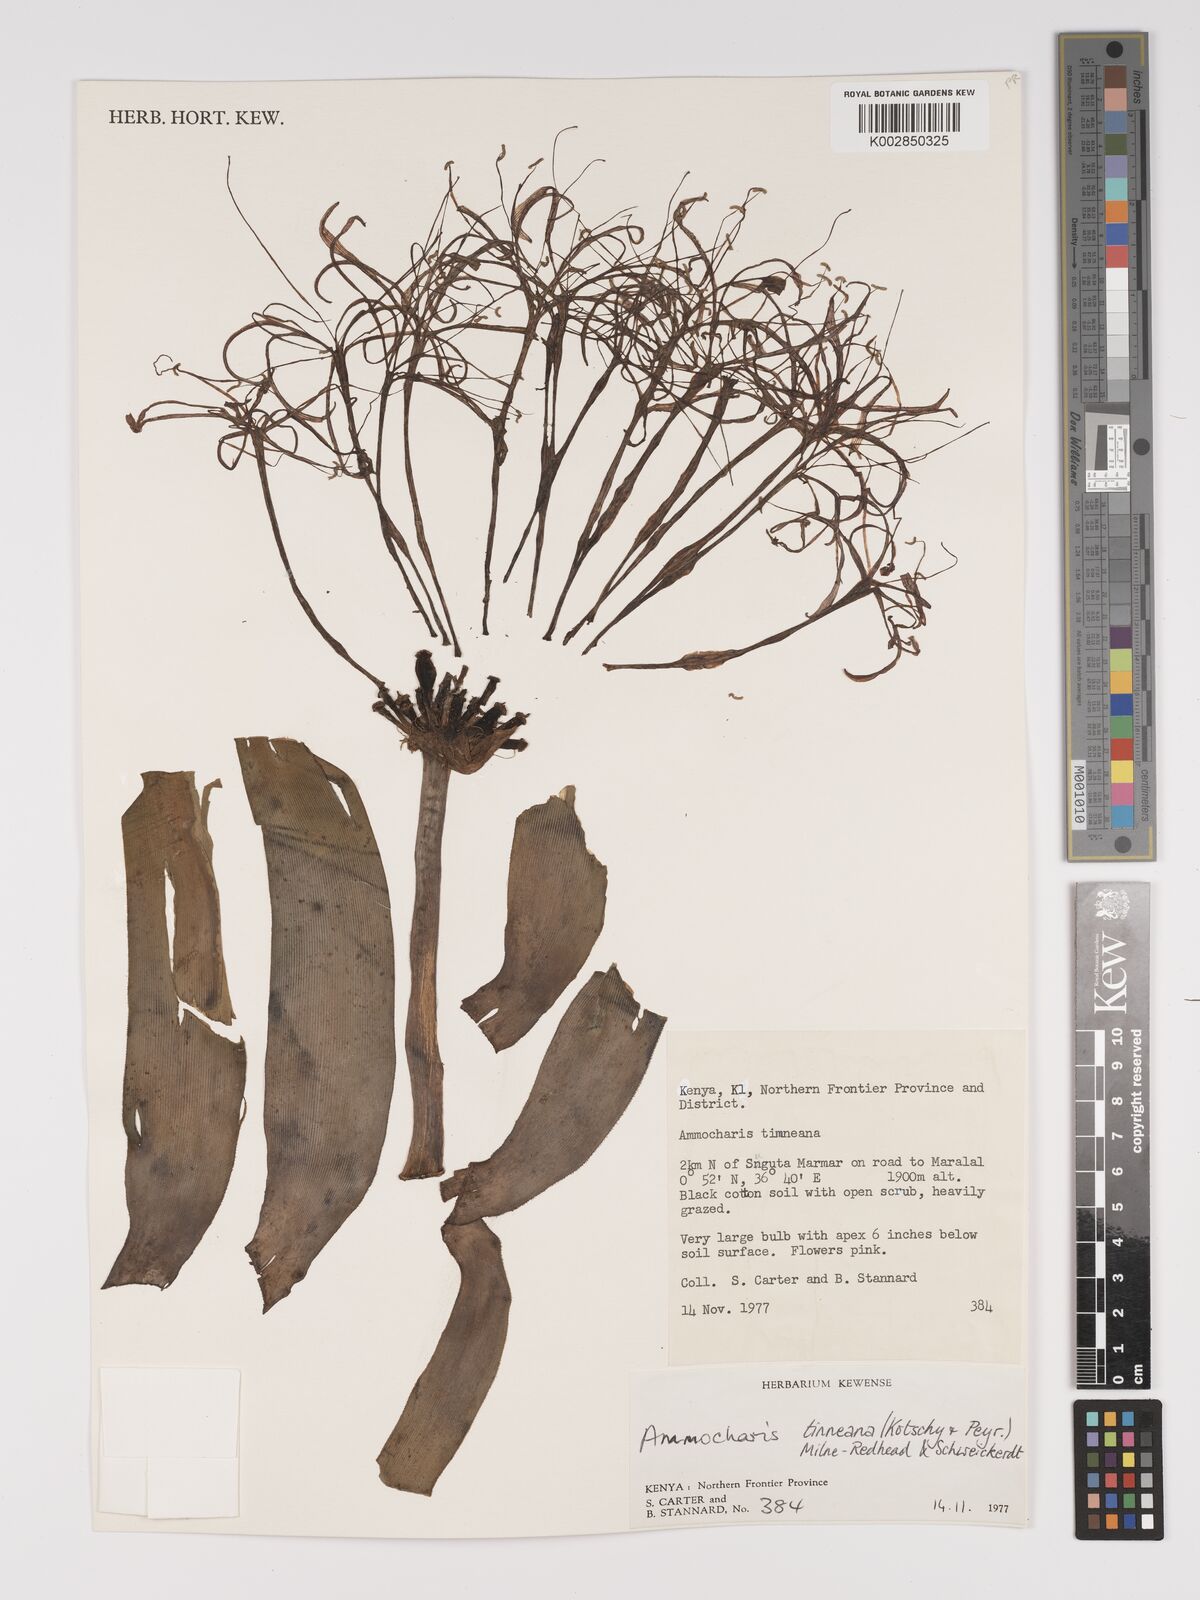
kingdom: Plantae
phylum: Tracheophyta
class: Liliopsida
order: Asparagales
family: Amaryllidaceae
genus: Ammocharis
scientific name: Ammocharis tinneana
